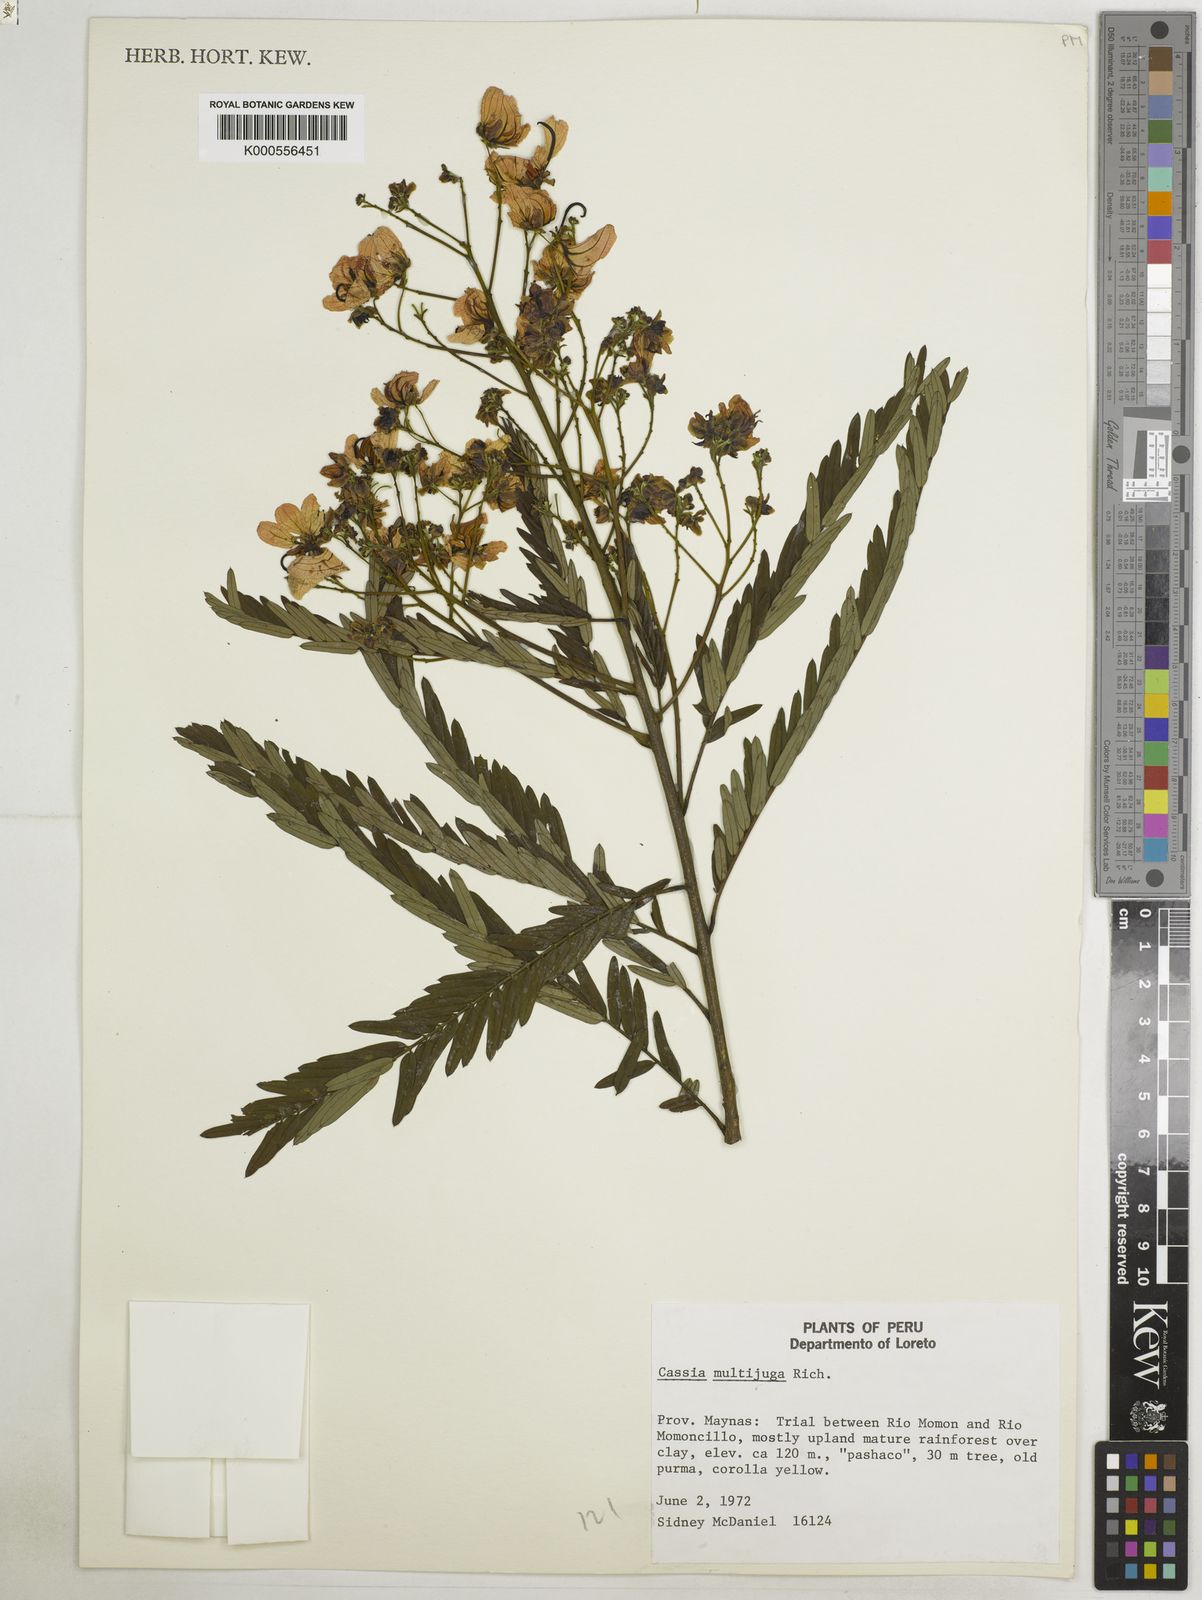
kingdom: Plantae
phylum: Tracheophyta
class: Magnoliopsida
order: Fabales
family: Fabaceae
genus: Senna
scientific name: Senna multijuga
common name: False sicklepod
